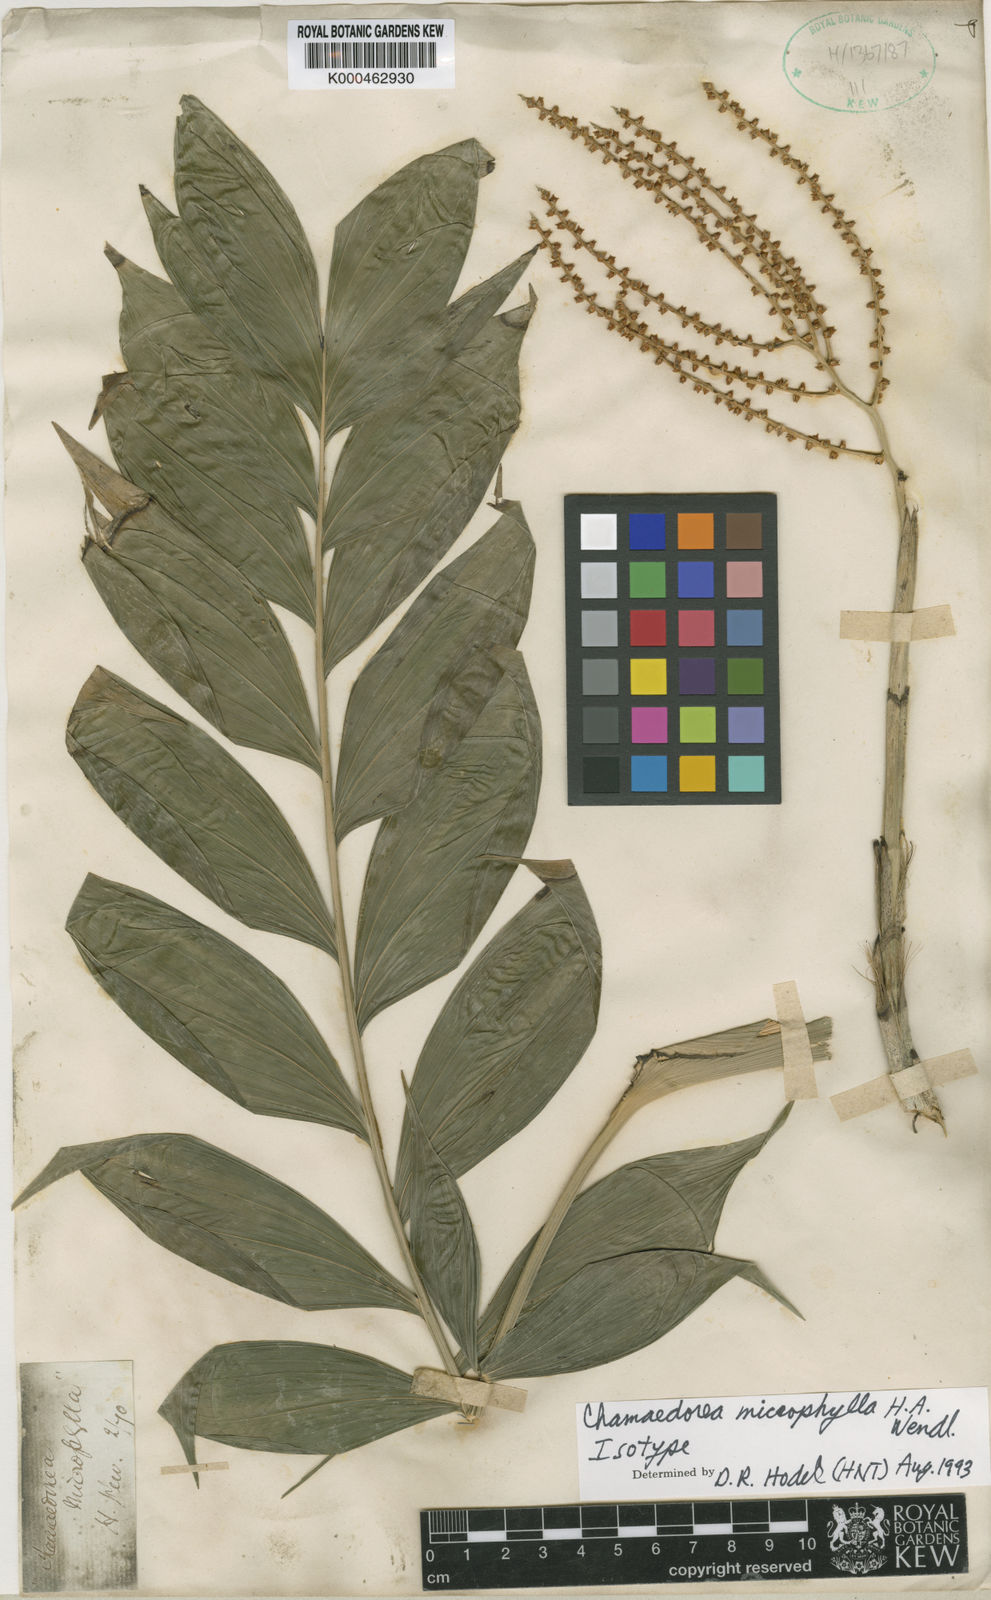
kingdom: Plantae
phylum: Tracheophyta
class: Liliopsida
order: Arecales
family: Arecaceae
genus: Chamaedorea
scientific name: Chamaedorea microphylla
